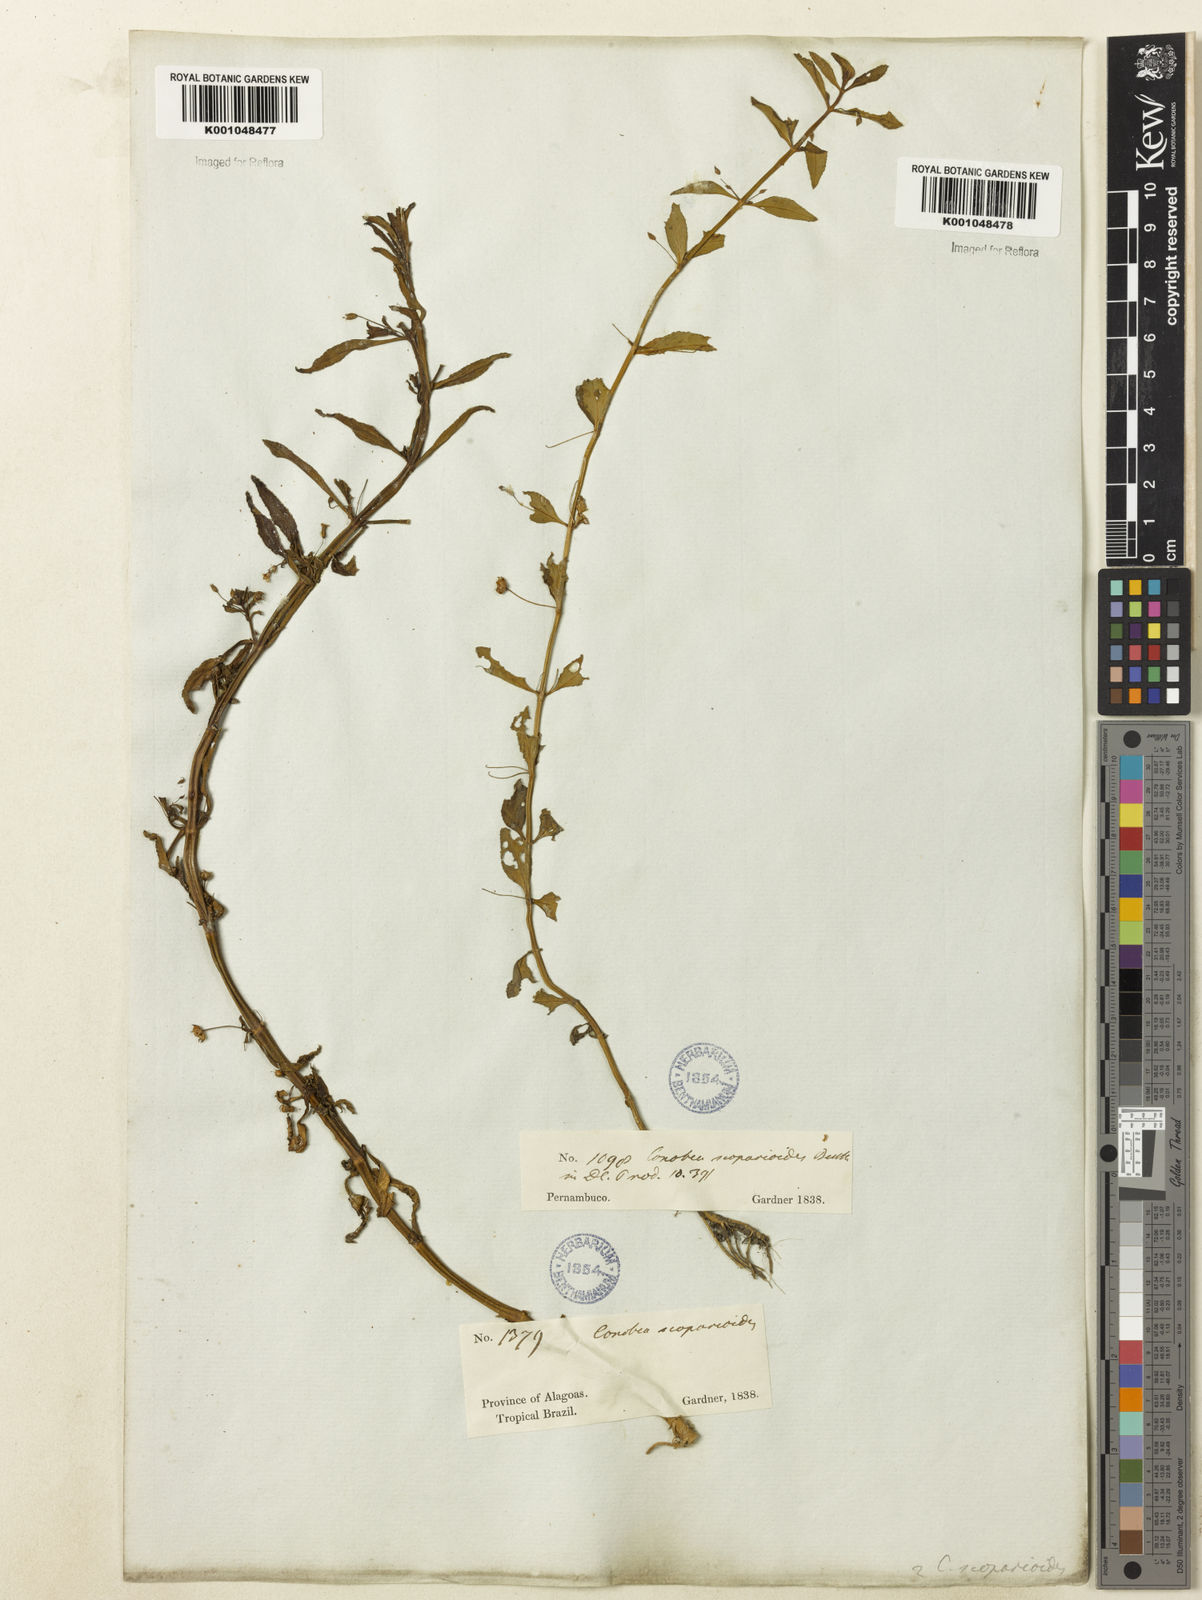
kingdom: Plantae
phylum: Tracheophyta
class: Magnoliopsida
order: Lamiales
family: Plantaginaceae
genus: Conobea
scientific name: Conobea scoparioides
